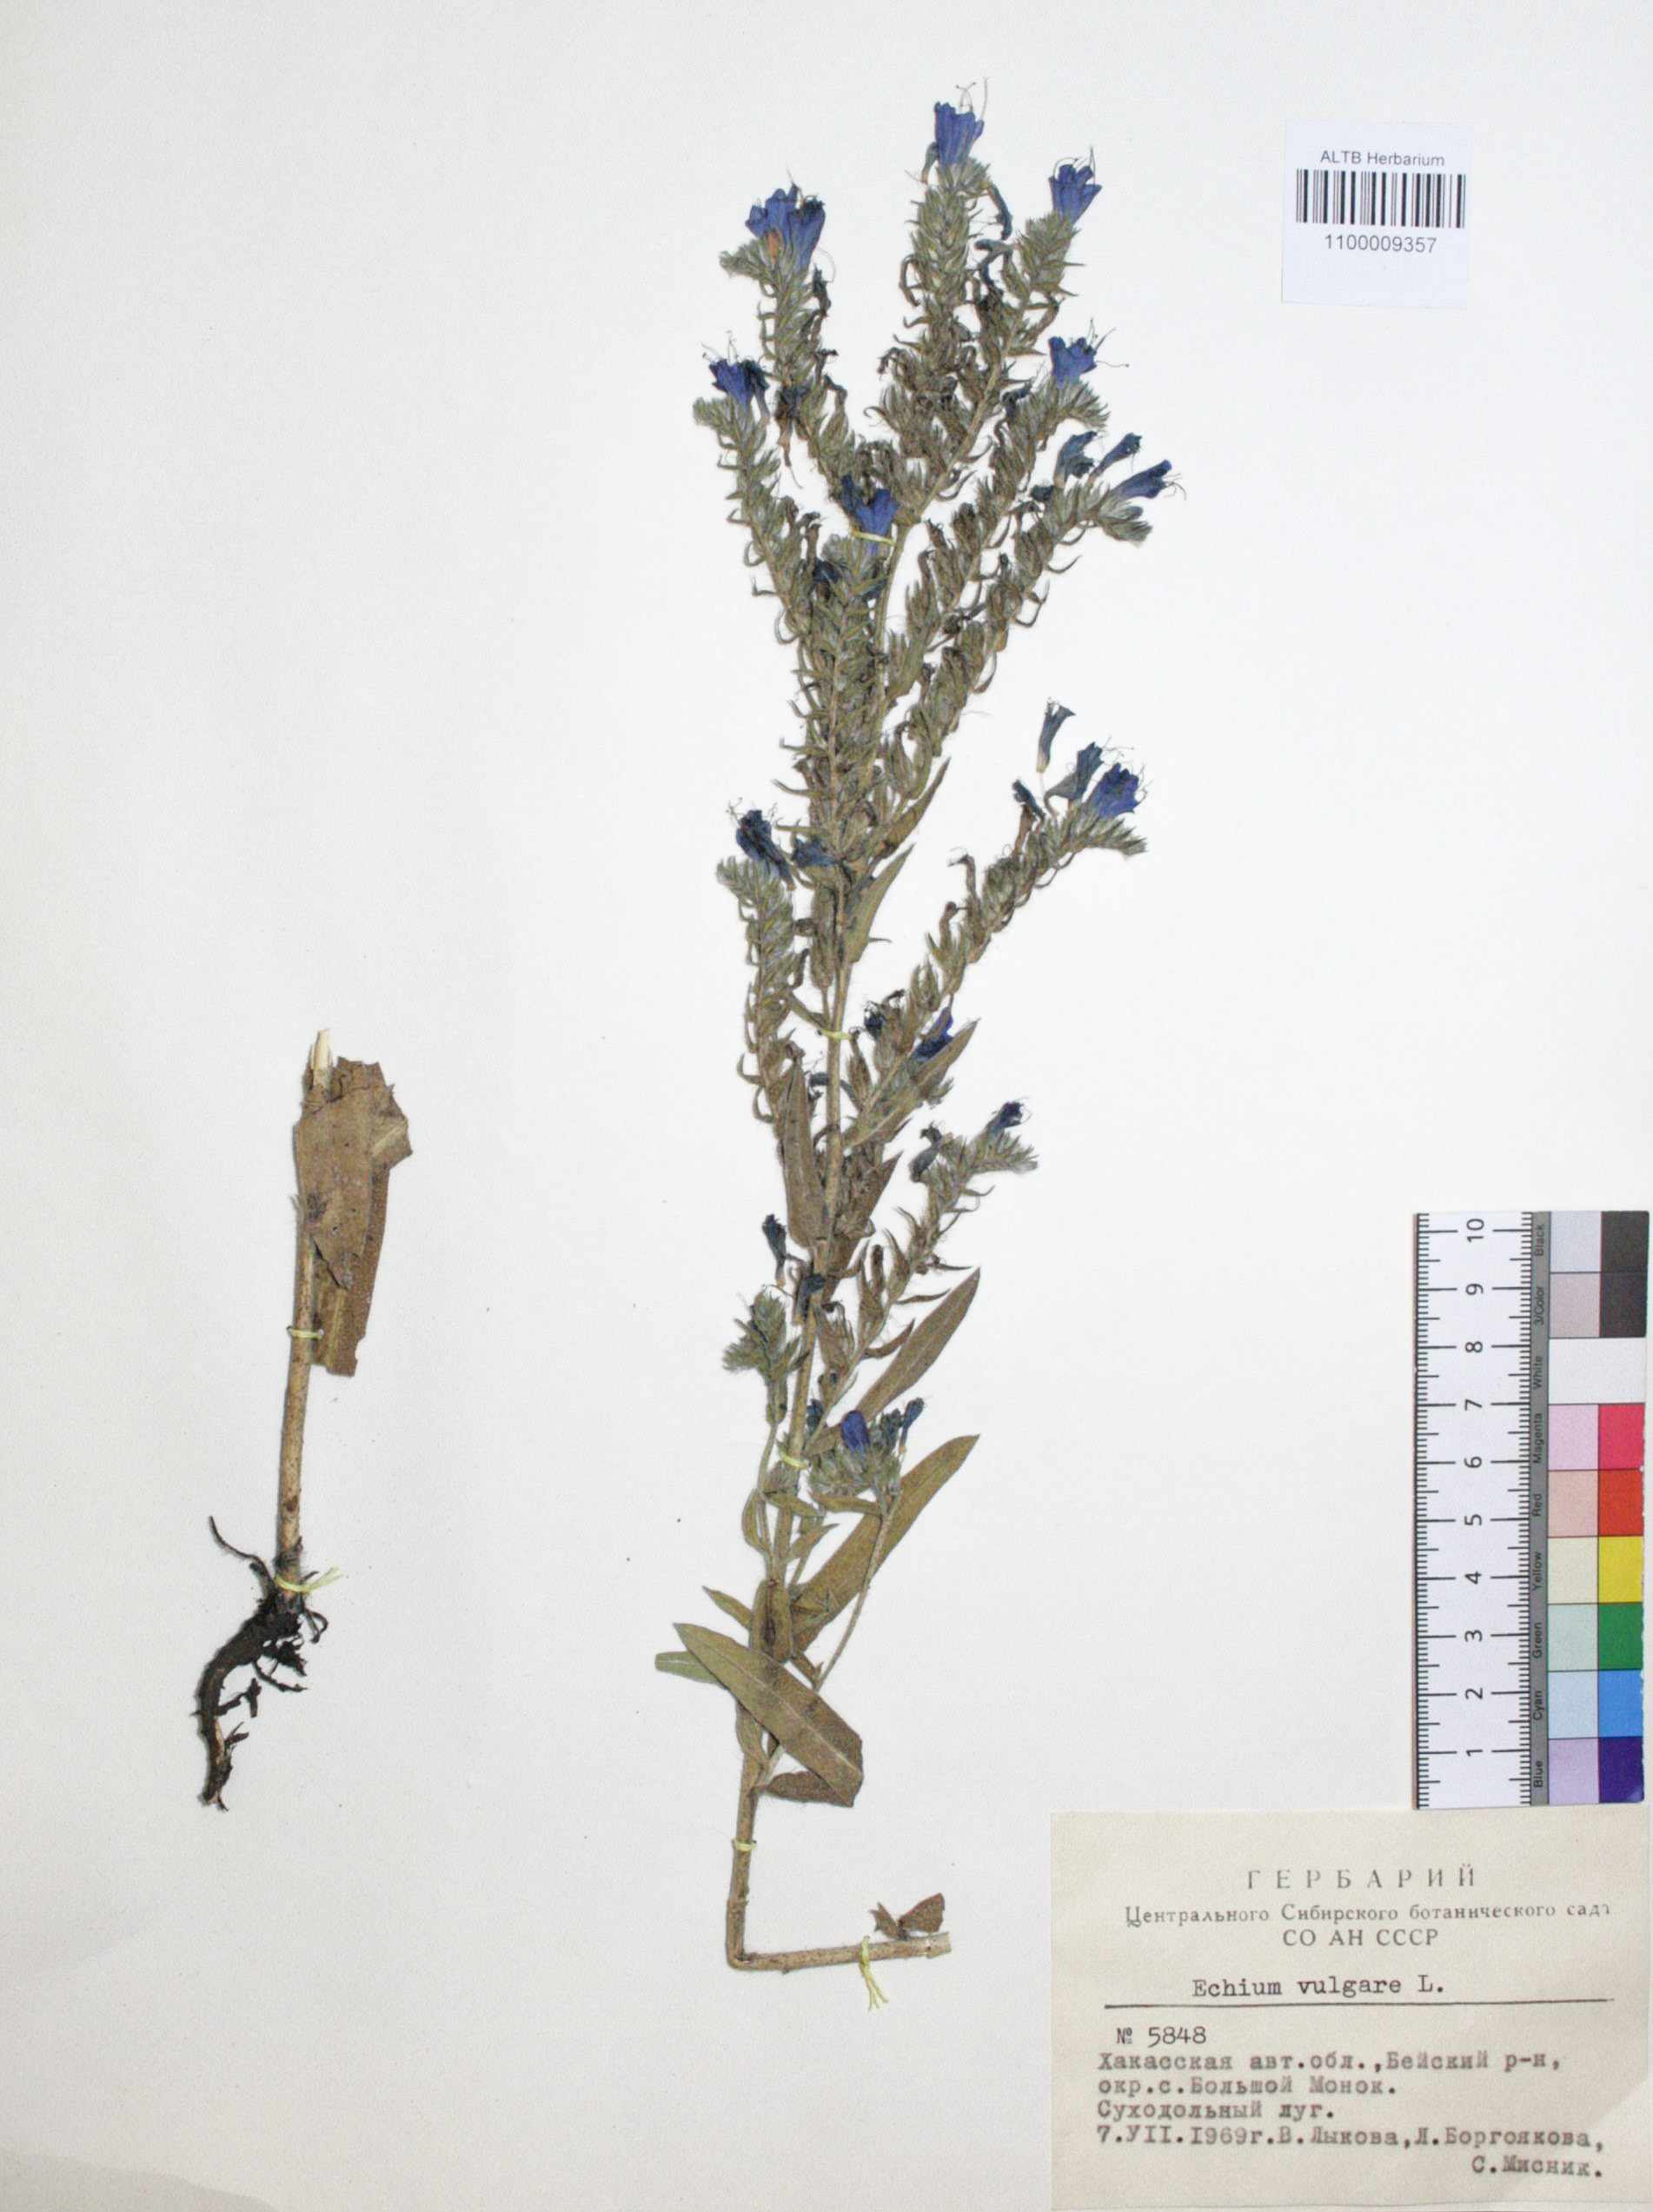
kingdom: Plantae
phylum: Tracheophyta
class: Magnoliopsida
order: Boraginales
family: Boraginaceae
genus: Echium
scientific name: Echium vulgare
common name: Common viper's bugloss
